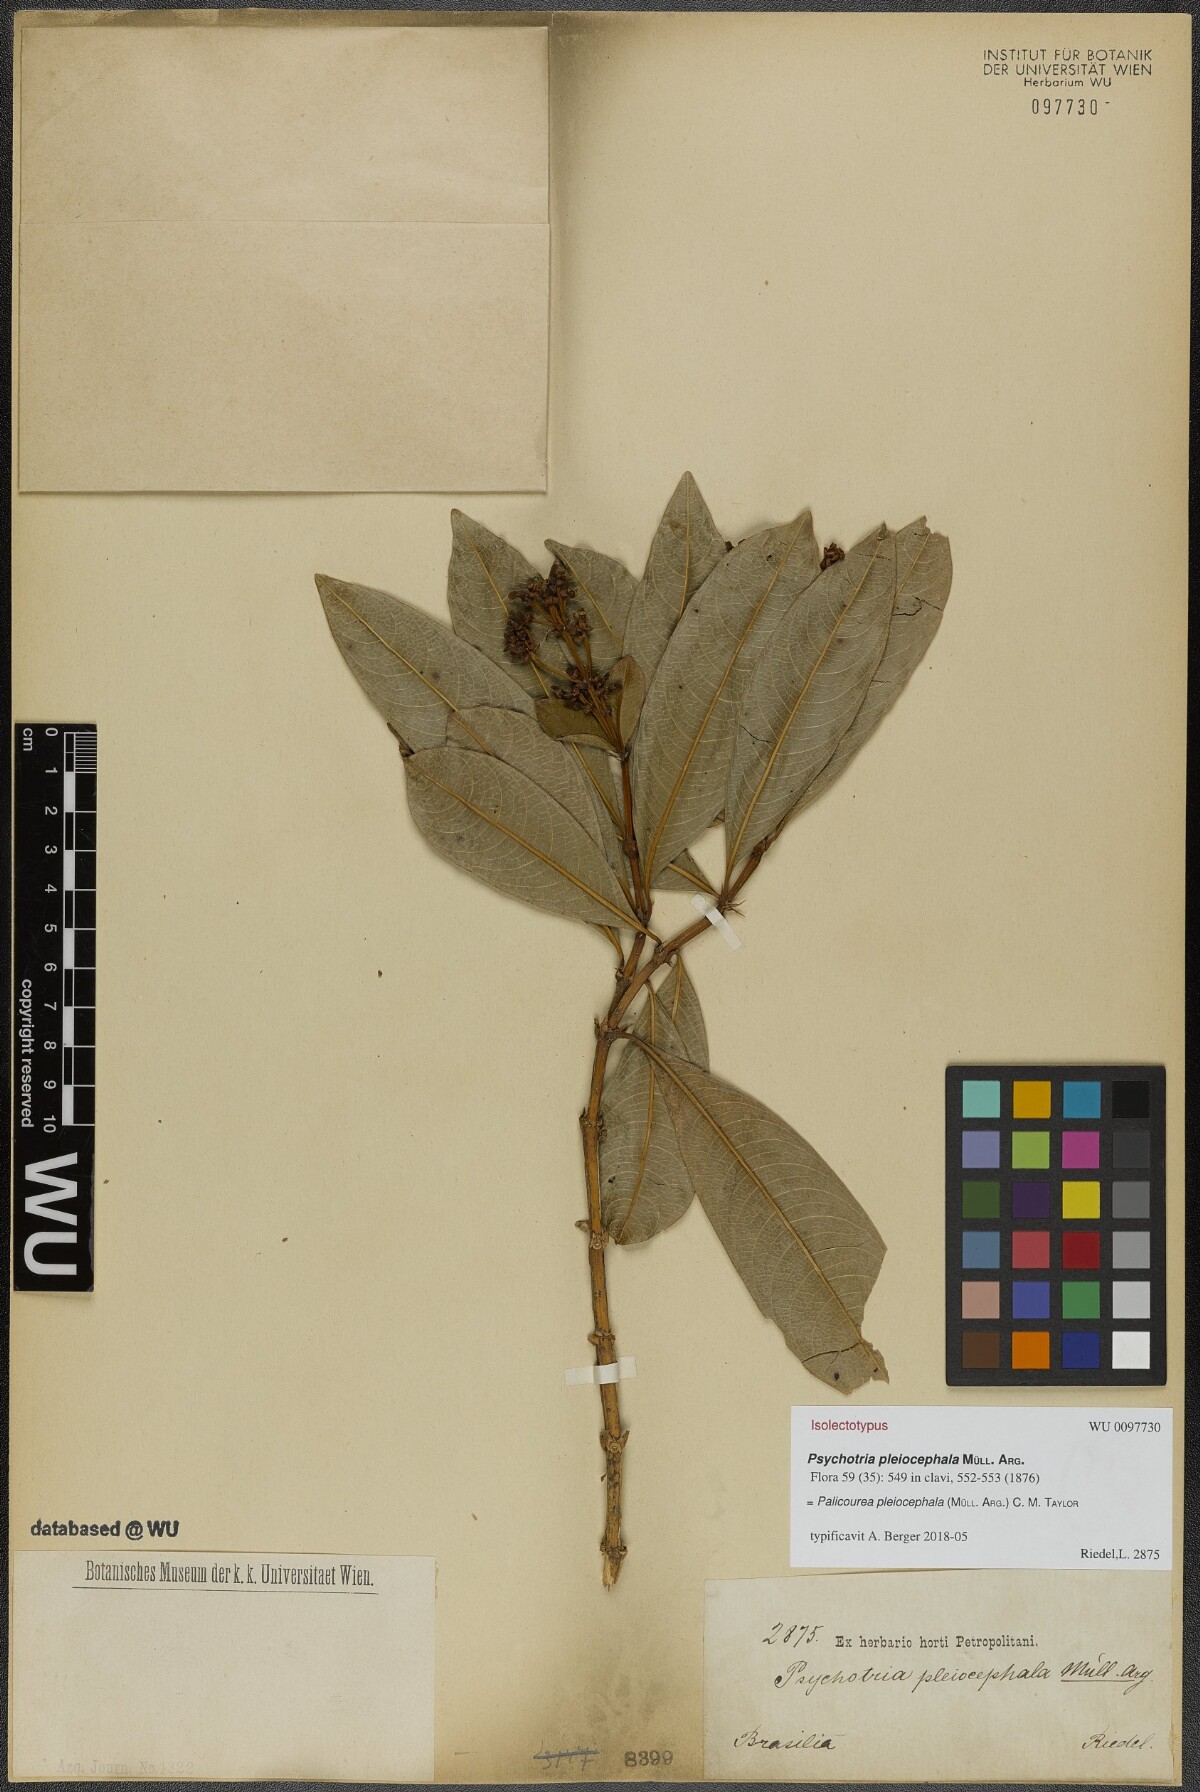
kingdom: Plantae
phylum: Tracheophyta
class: Magnoliopsida
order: Gentianales
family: Rubiaceae
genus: Palicourea
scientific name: Palicourea pleiocephala
